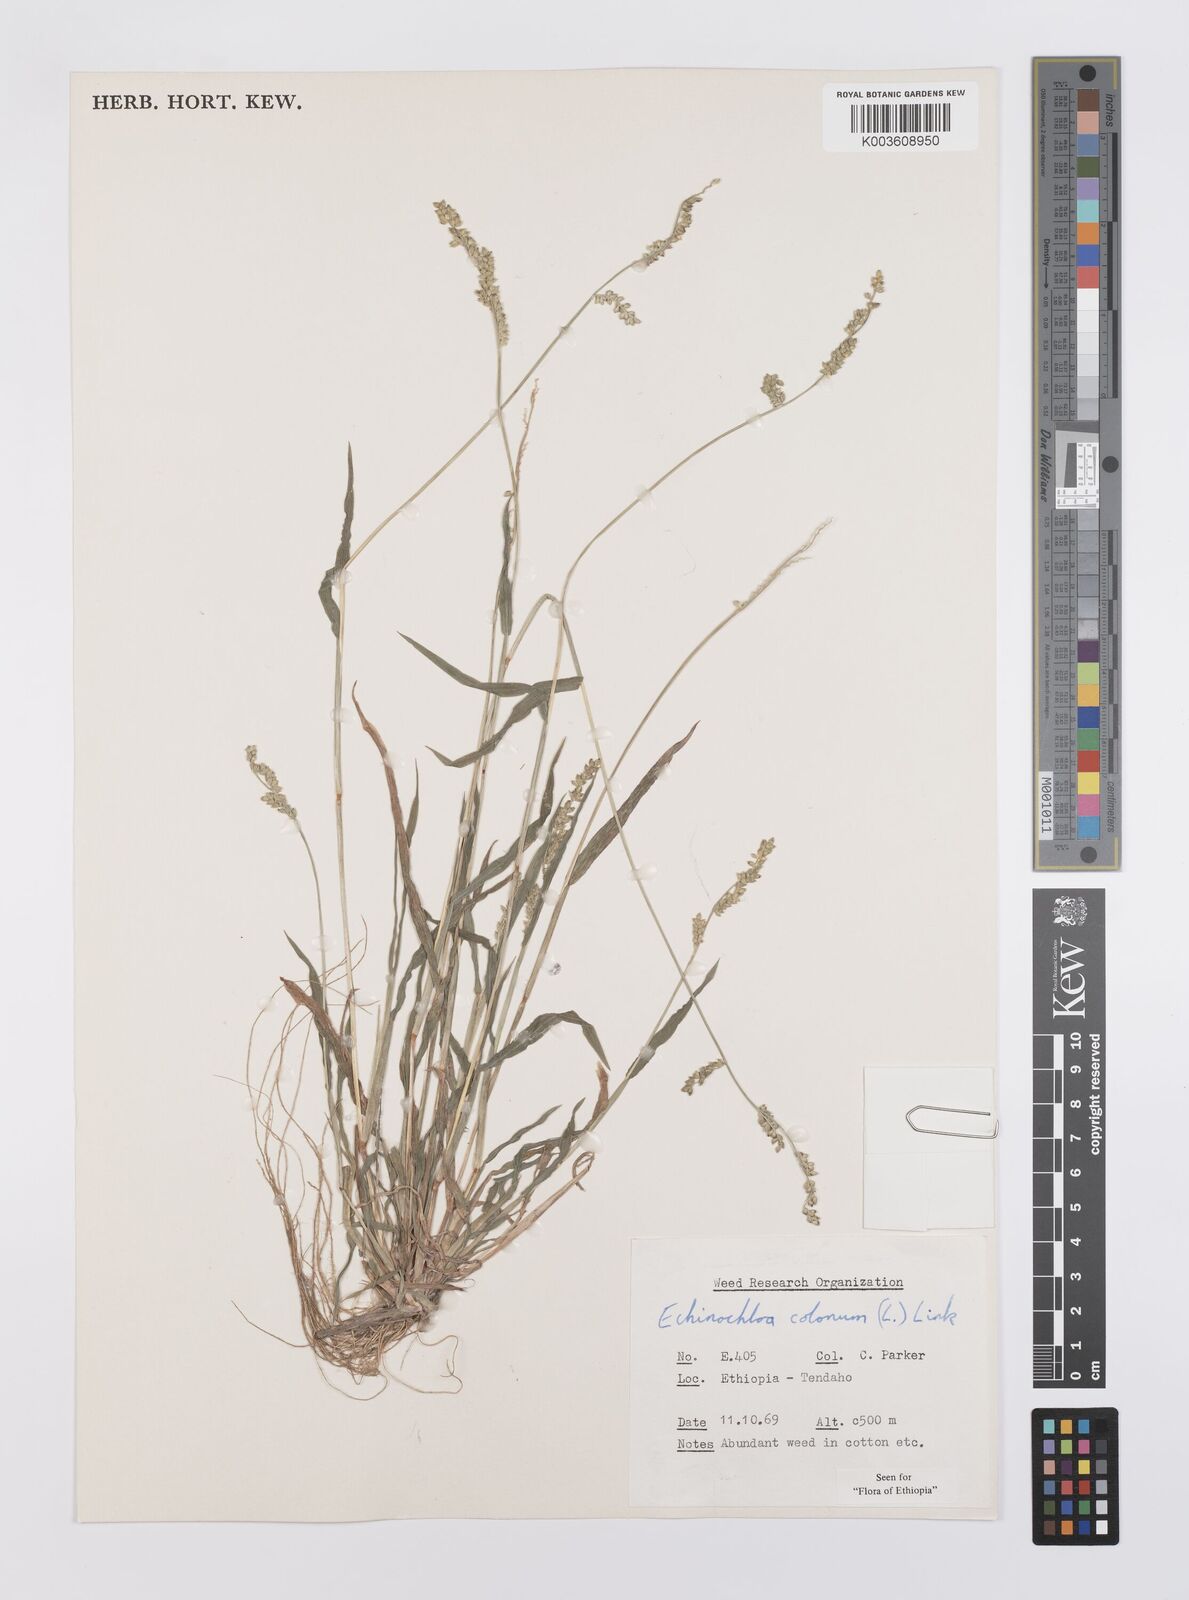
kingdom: Plantae
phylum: Tracheophyta
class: Liliopsida
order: Poales
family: Poaceae
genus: Echinochloa
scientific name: Echinochloa colonum
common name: Jungle rice
